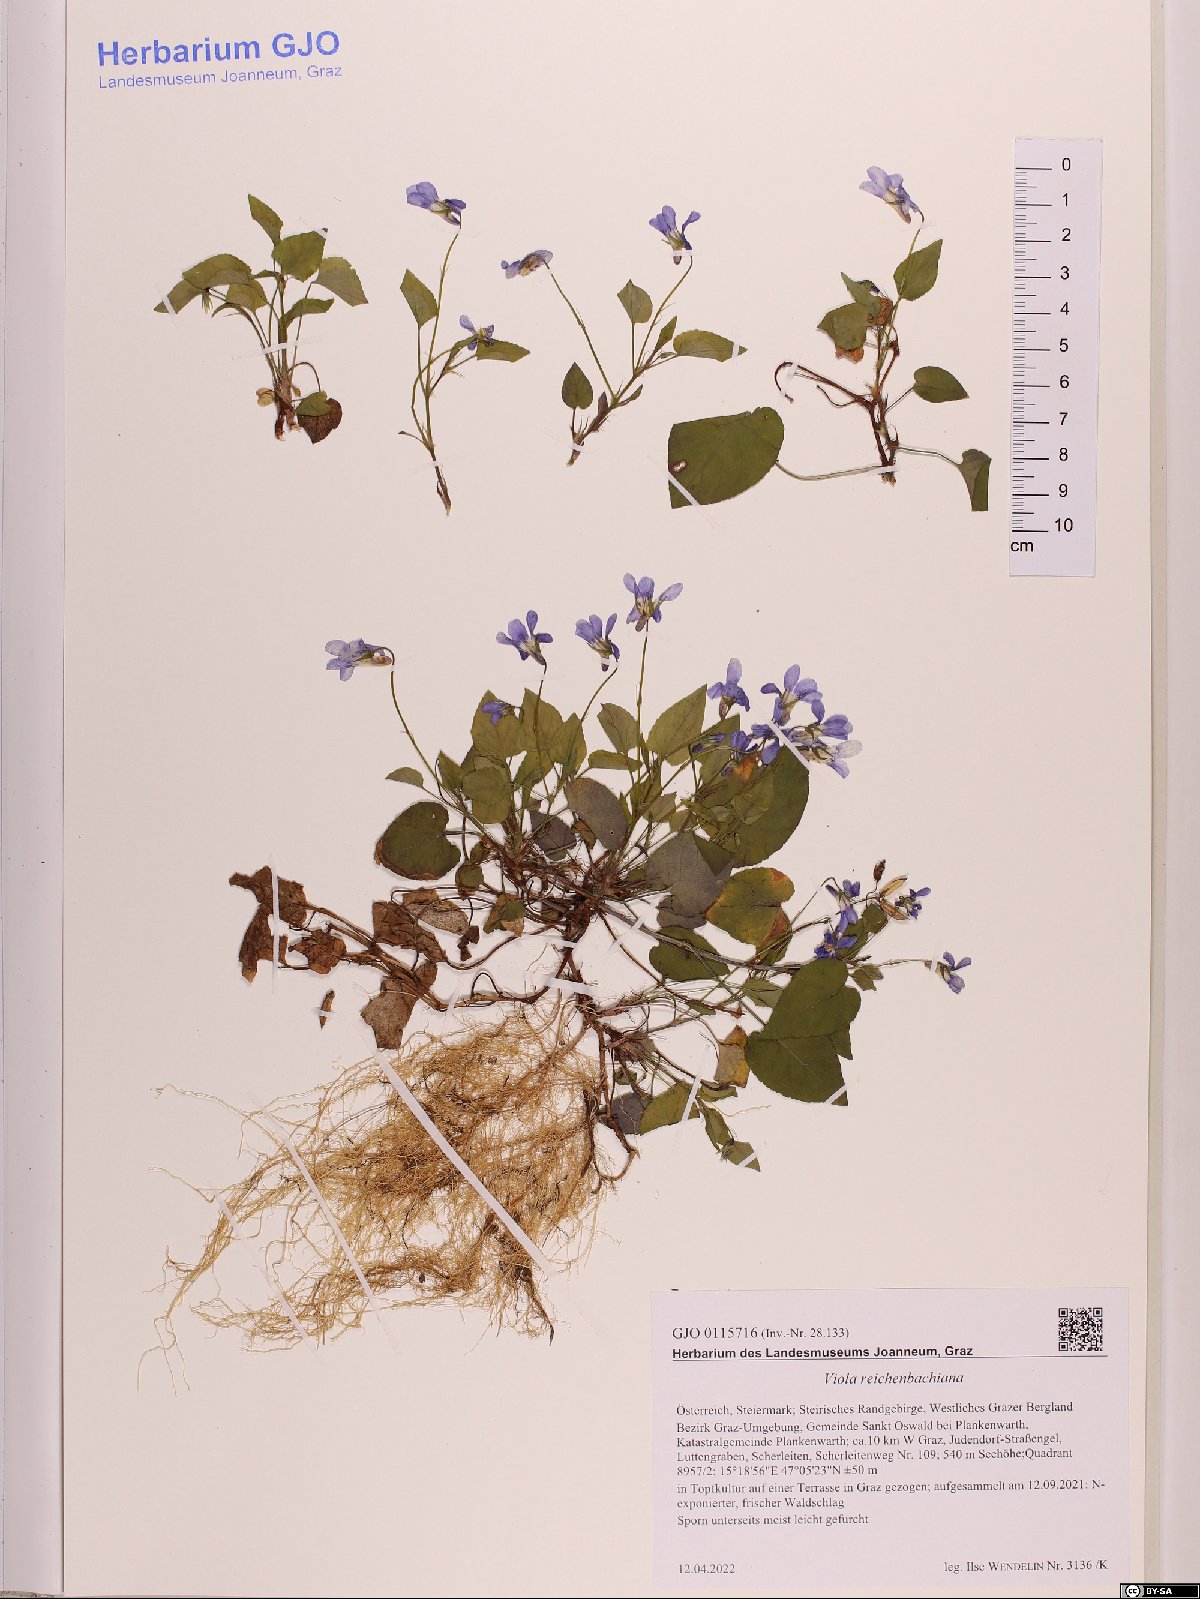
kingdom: Plantae
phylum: Tracheophyta
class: Magnoliopsida
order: Malpighiales
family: Violaceae
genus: Viola
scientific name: Viola reichenbachiana
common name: Early dog-violet
